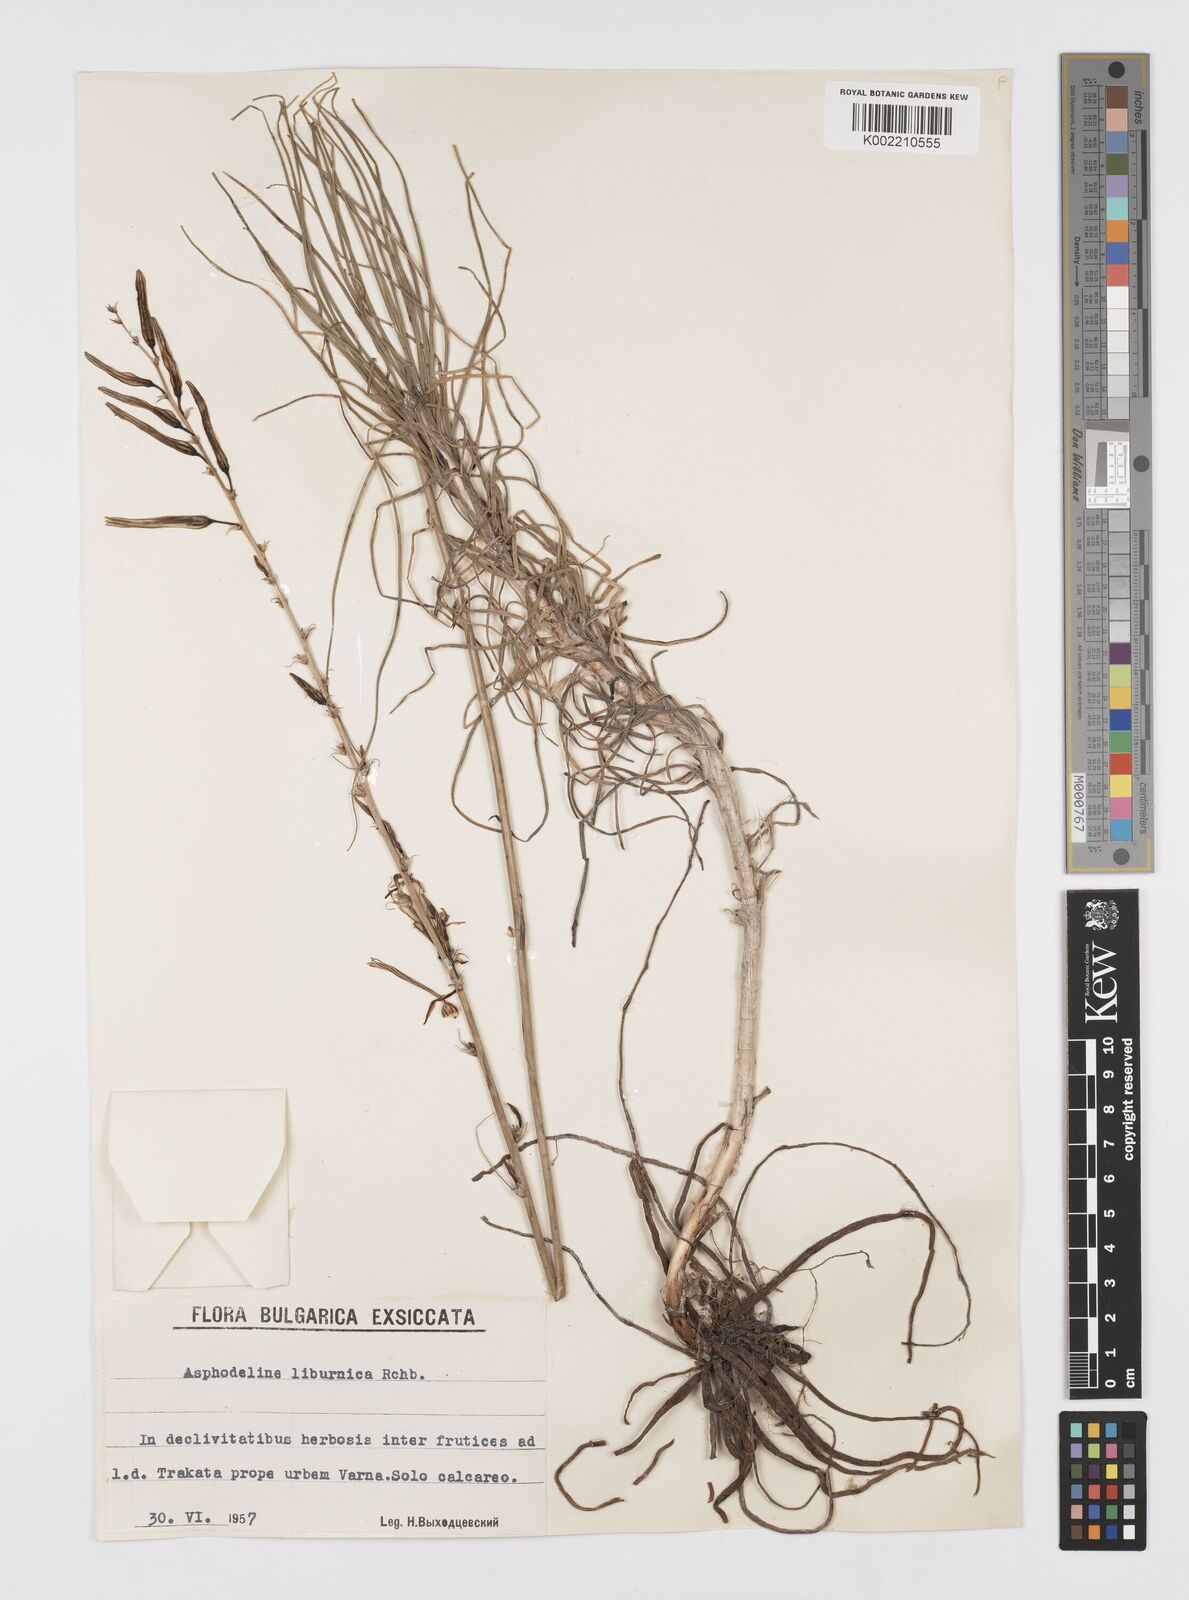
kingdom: Plantae
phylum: Tracheophyta
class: Liliopsida
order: Asparagales
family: Asphodelaceae
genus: Asphodeline
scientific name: Asphodeline liburnica
